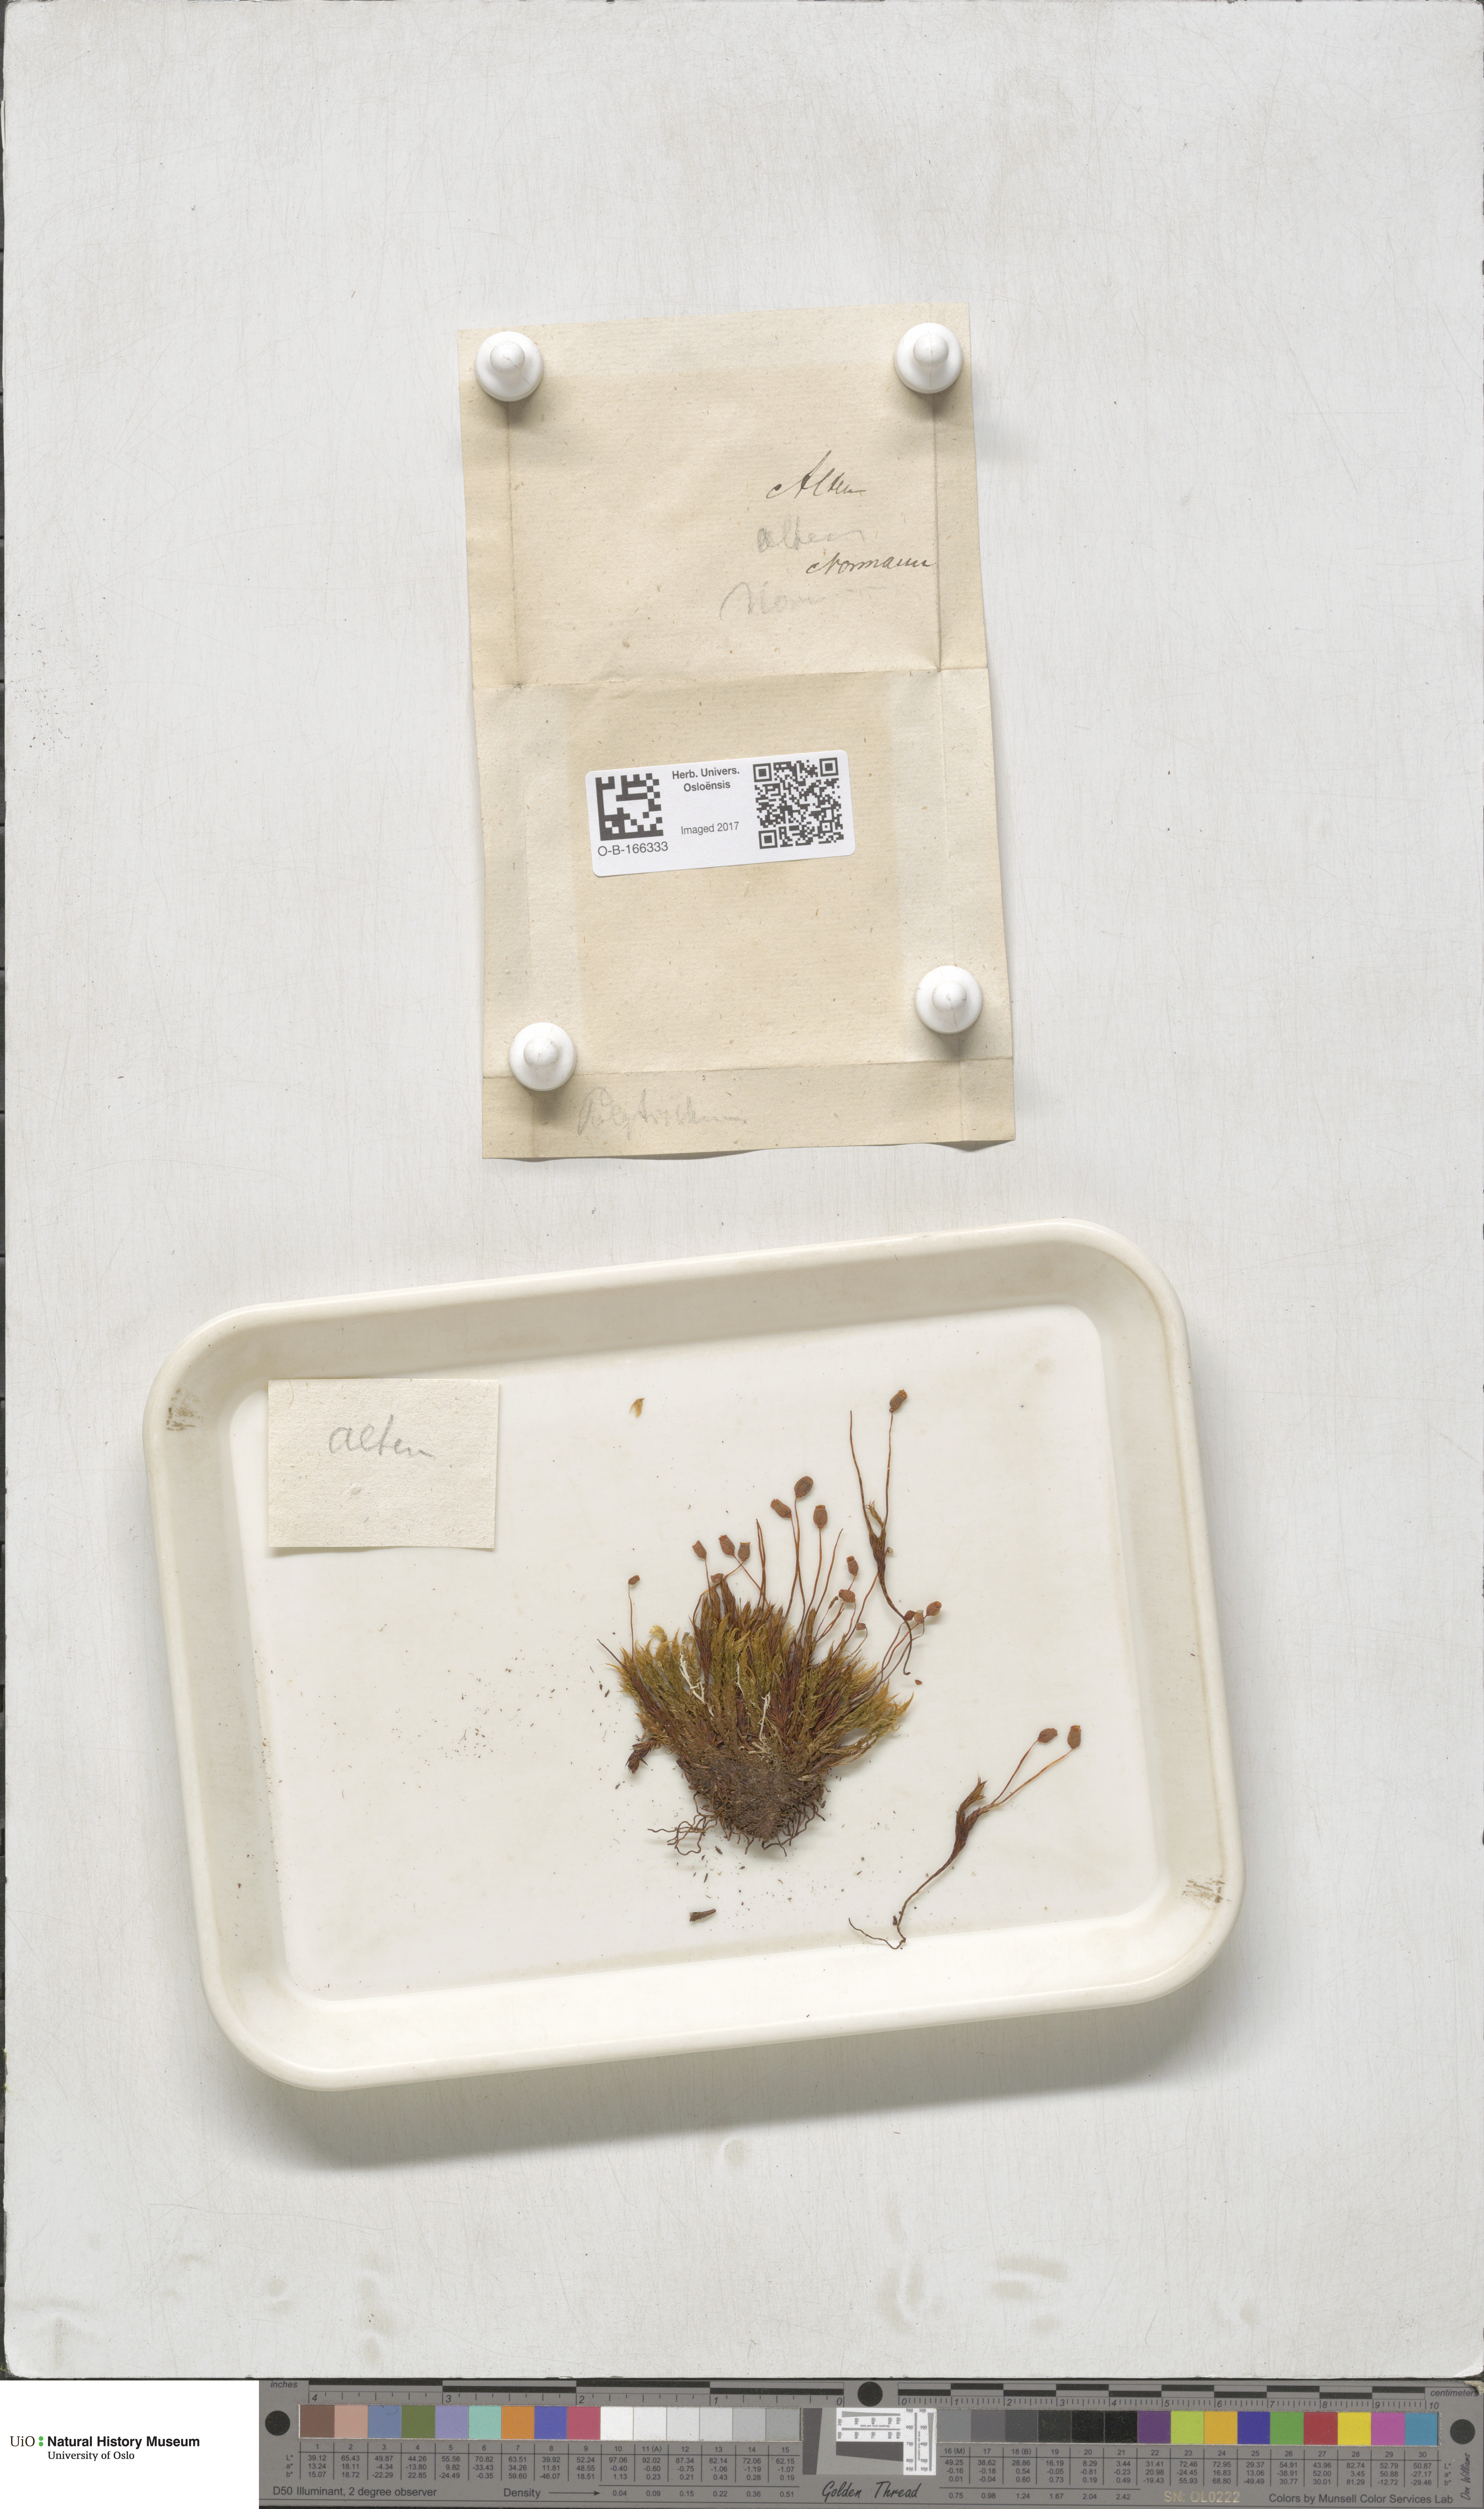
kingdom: Plantae
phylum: Bryophyta
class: Polytrichopsida
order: Polytrichales
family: Polytrichaceae
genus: Polytrichum
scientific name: Polytrichum
